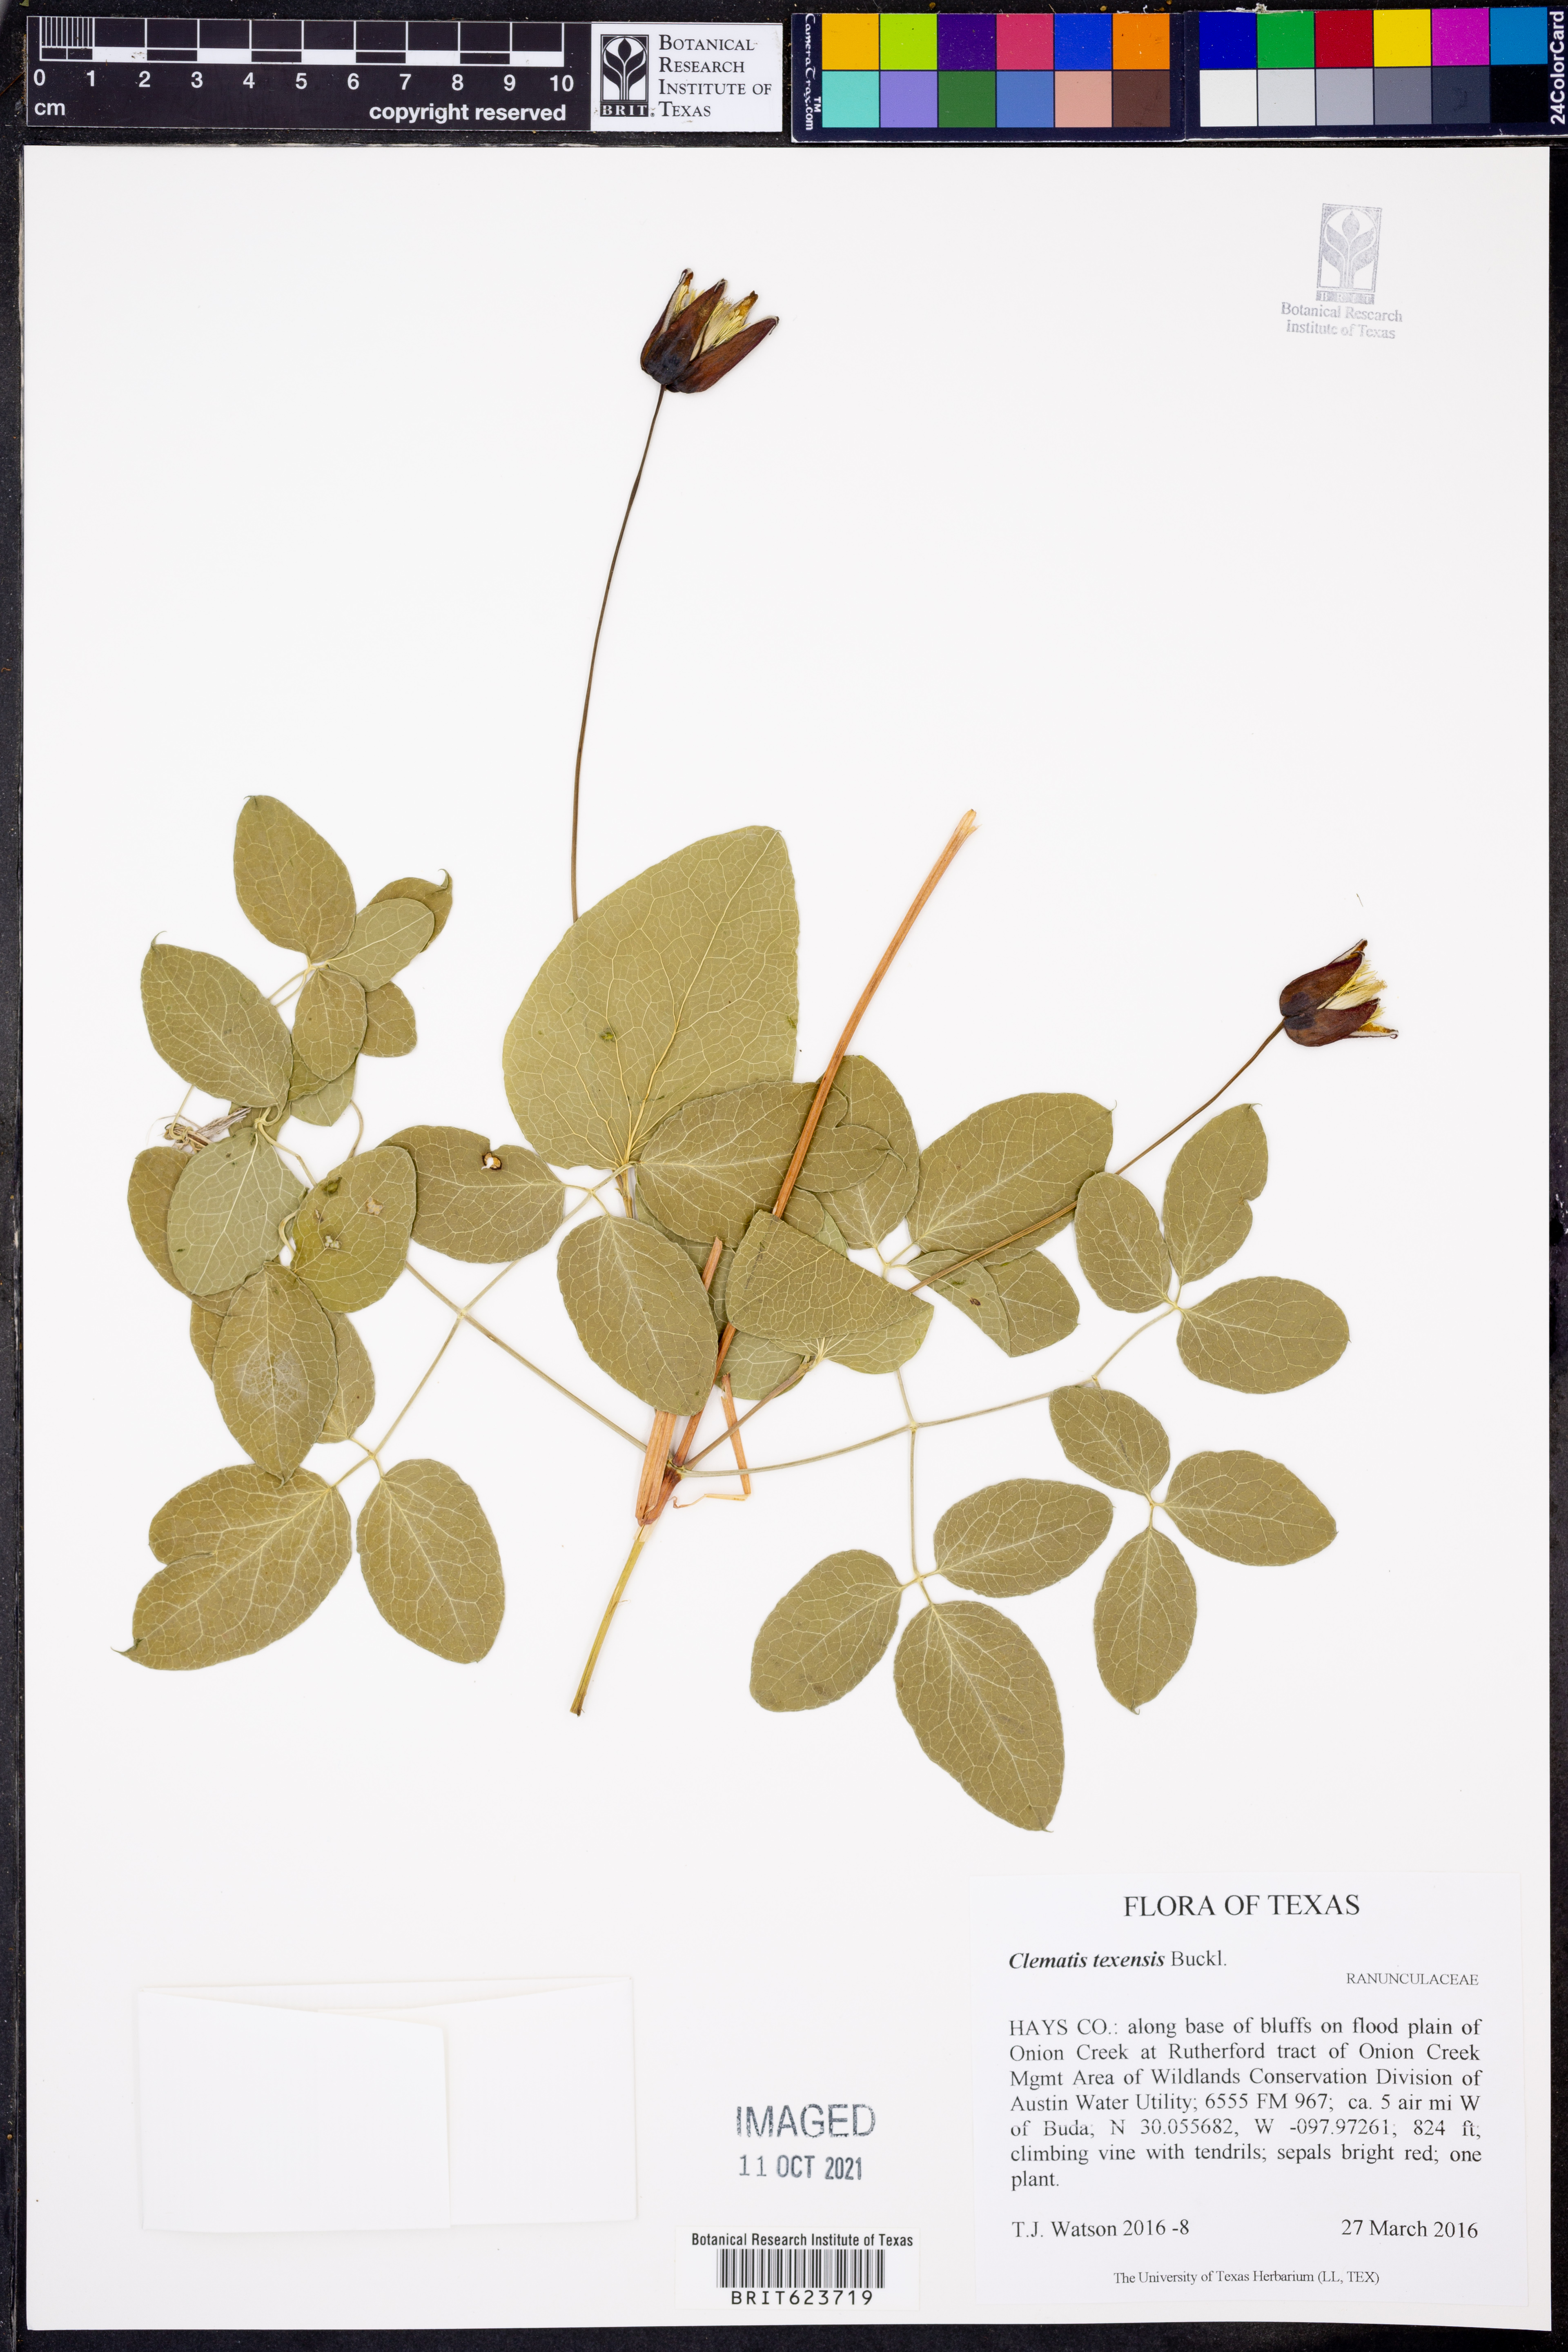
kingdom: Plantae
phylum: Tracheophyta
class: Magnoliopsida
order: Ranunculales
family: Ranunculaceae
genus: Clematis
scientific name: Clematis texensis
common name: Crimson clematis
